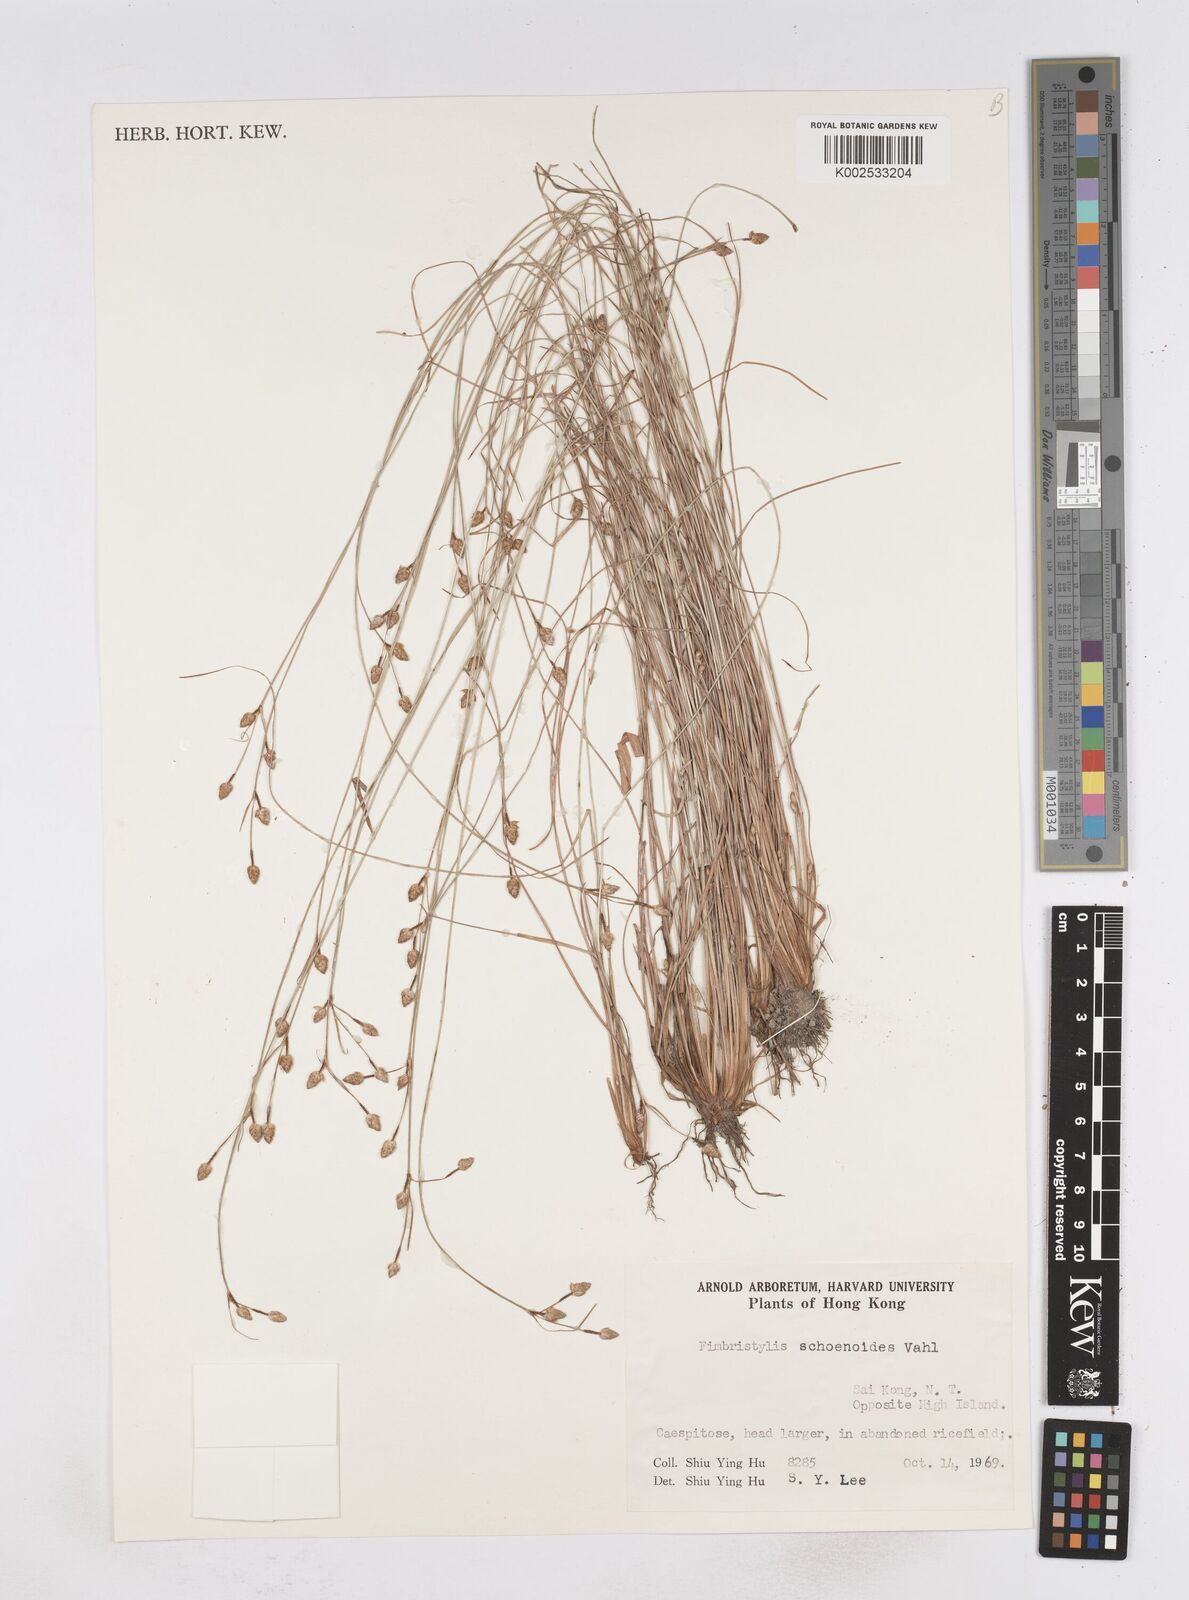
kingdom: Plantae
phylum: Tracheophyta
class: Liliopsida
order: Poales
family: Cyperaceae
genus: Fimbristylis
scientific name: Fimbristylis schoenoides
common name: Ditch fimbry
